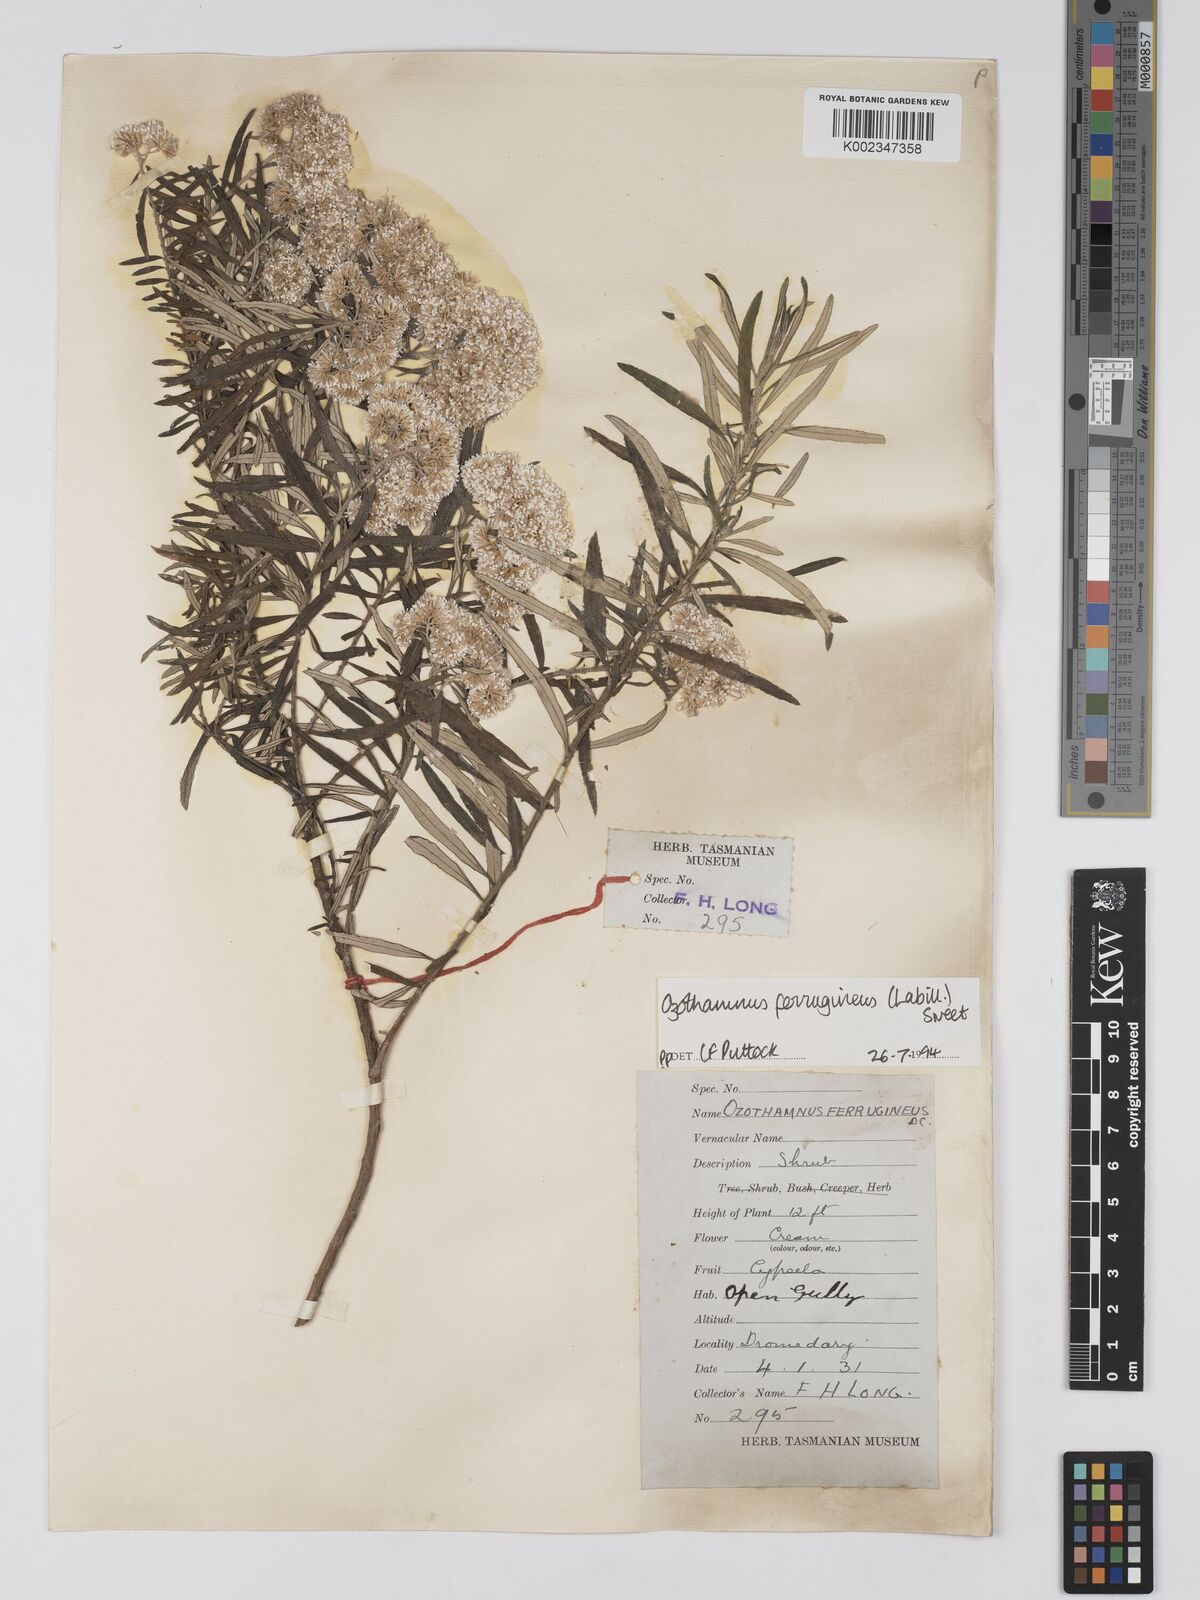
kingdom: Plantae
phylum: Tracheophyta
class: Magnoliopsida
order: Asterales
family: Asteraceae
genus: Ozothamnus
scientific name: Ozothamnus argophyllus
